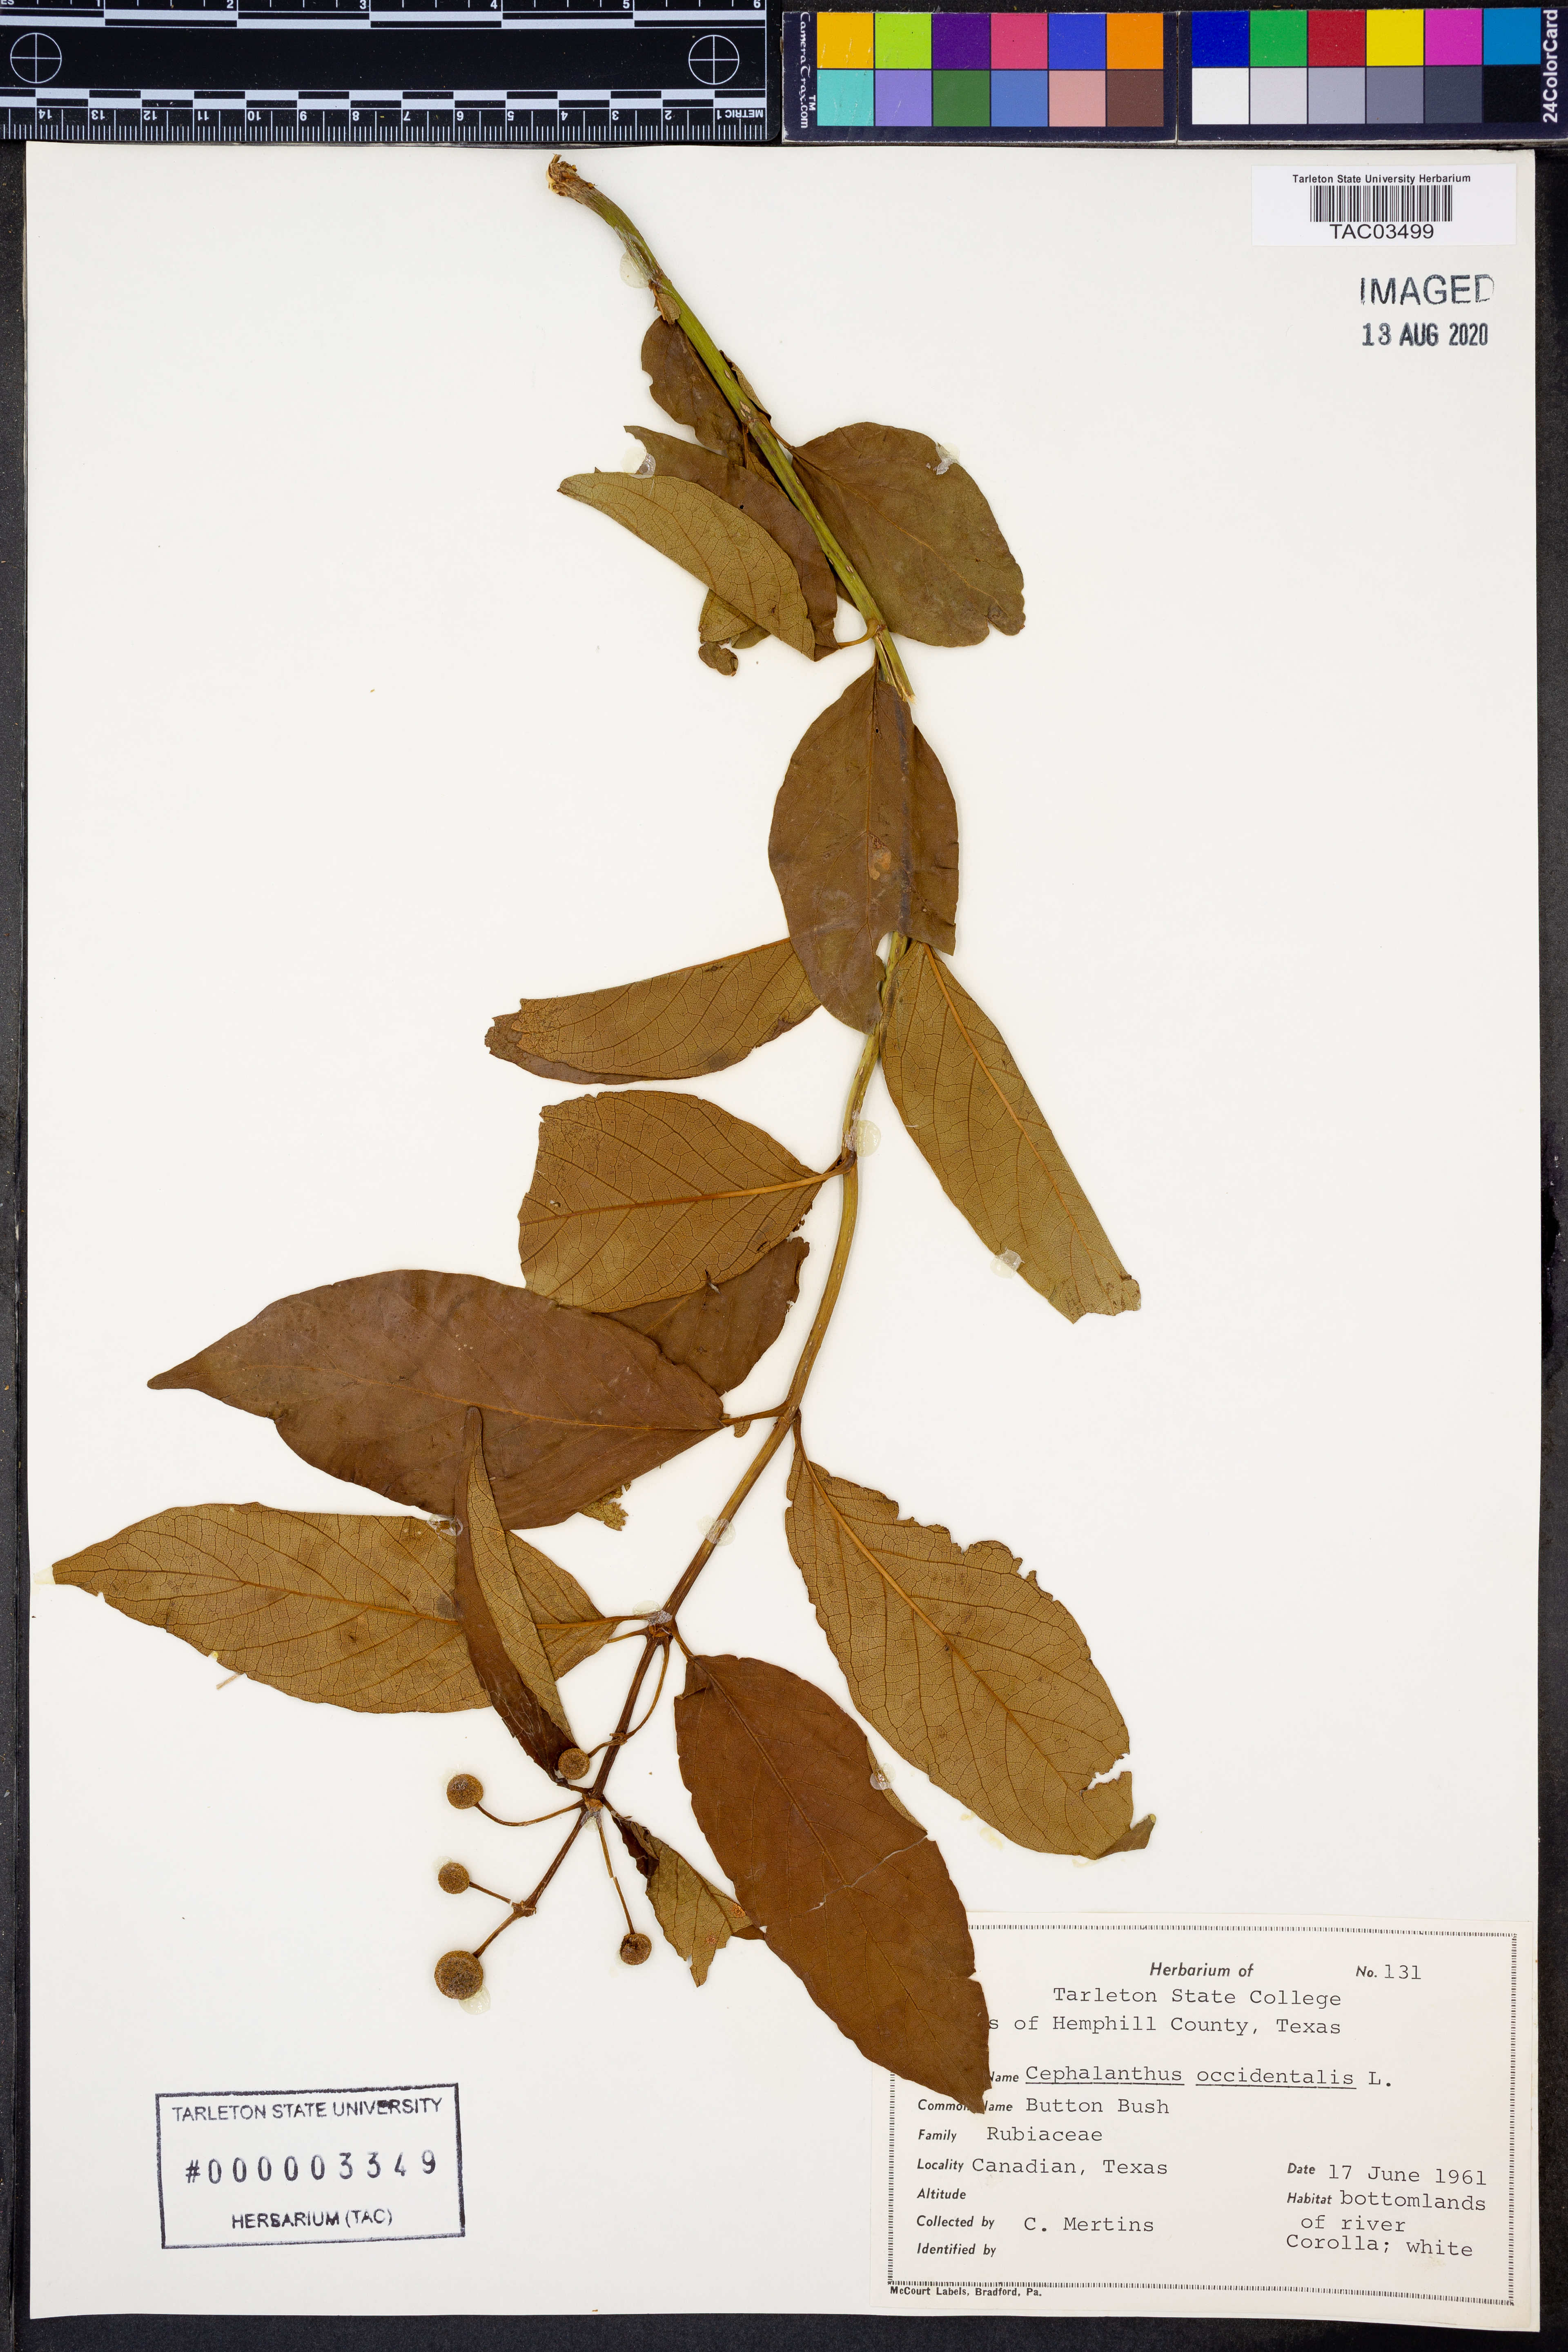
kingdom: Plantae
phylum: Tracheophyta
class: Magnoliopsida
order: Gentianales
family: Rubiaceae
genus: Cephalanthus
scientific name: Cephalanthus occidentalis
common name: Button-willow
